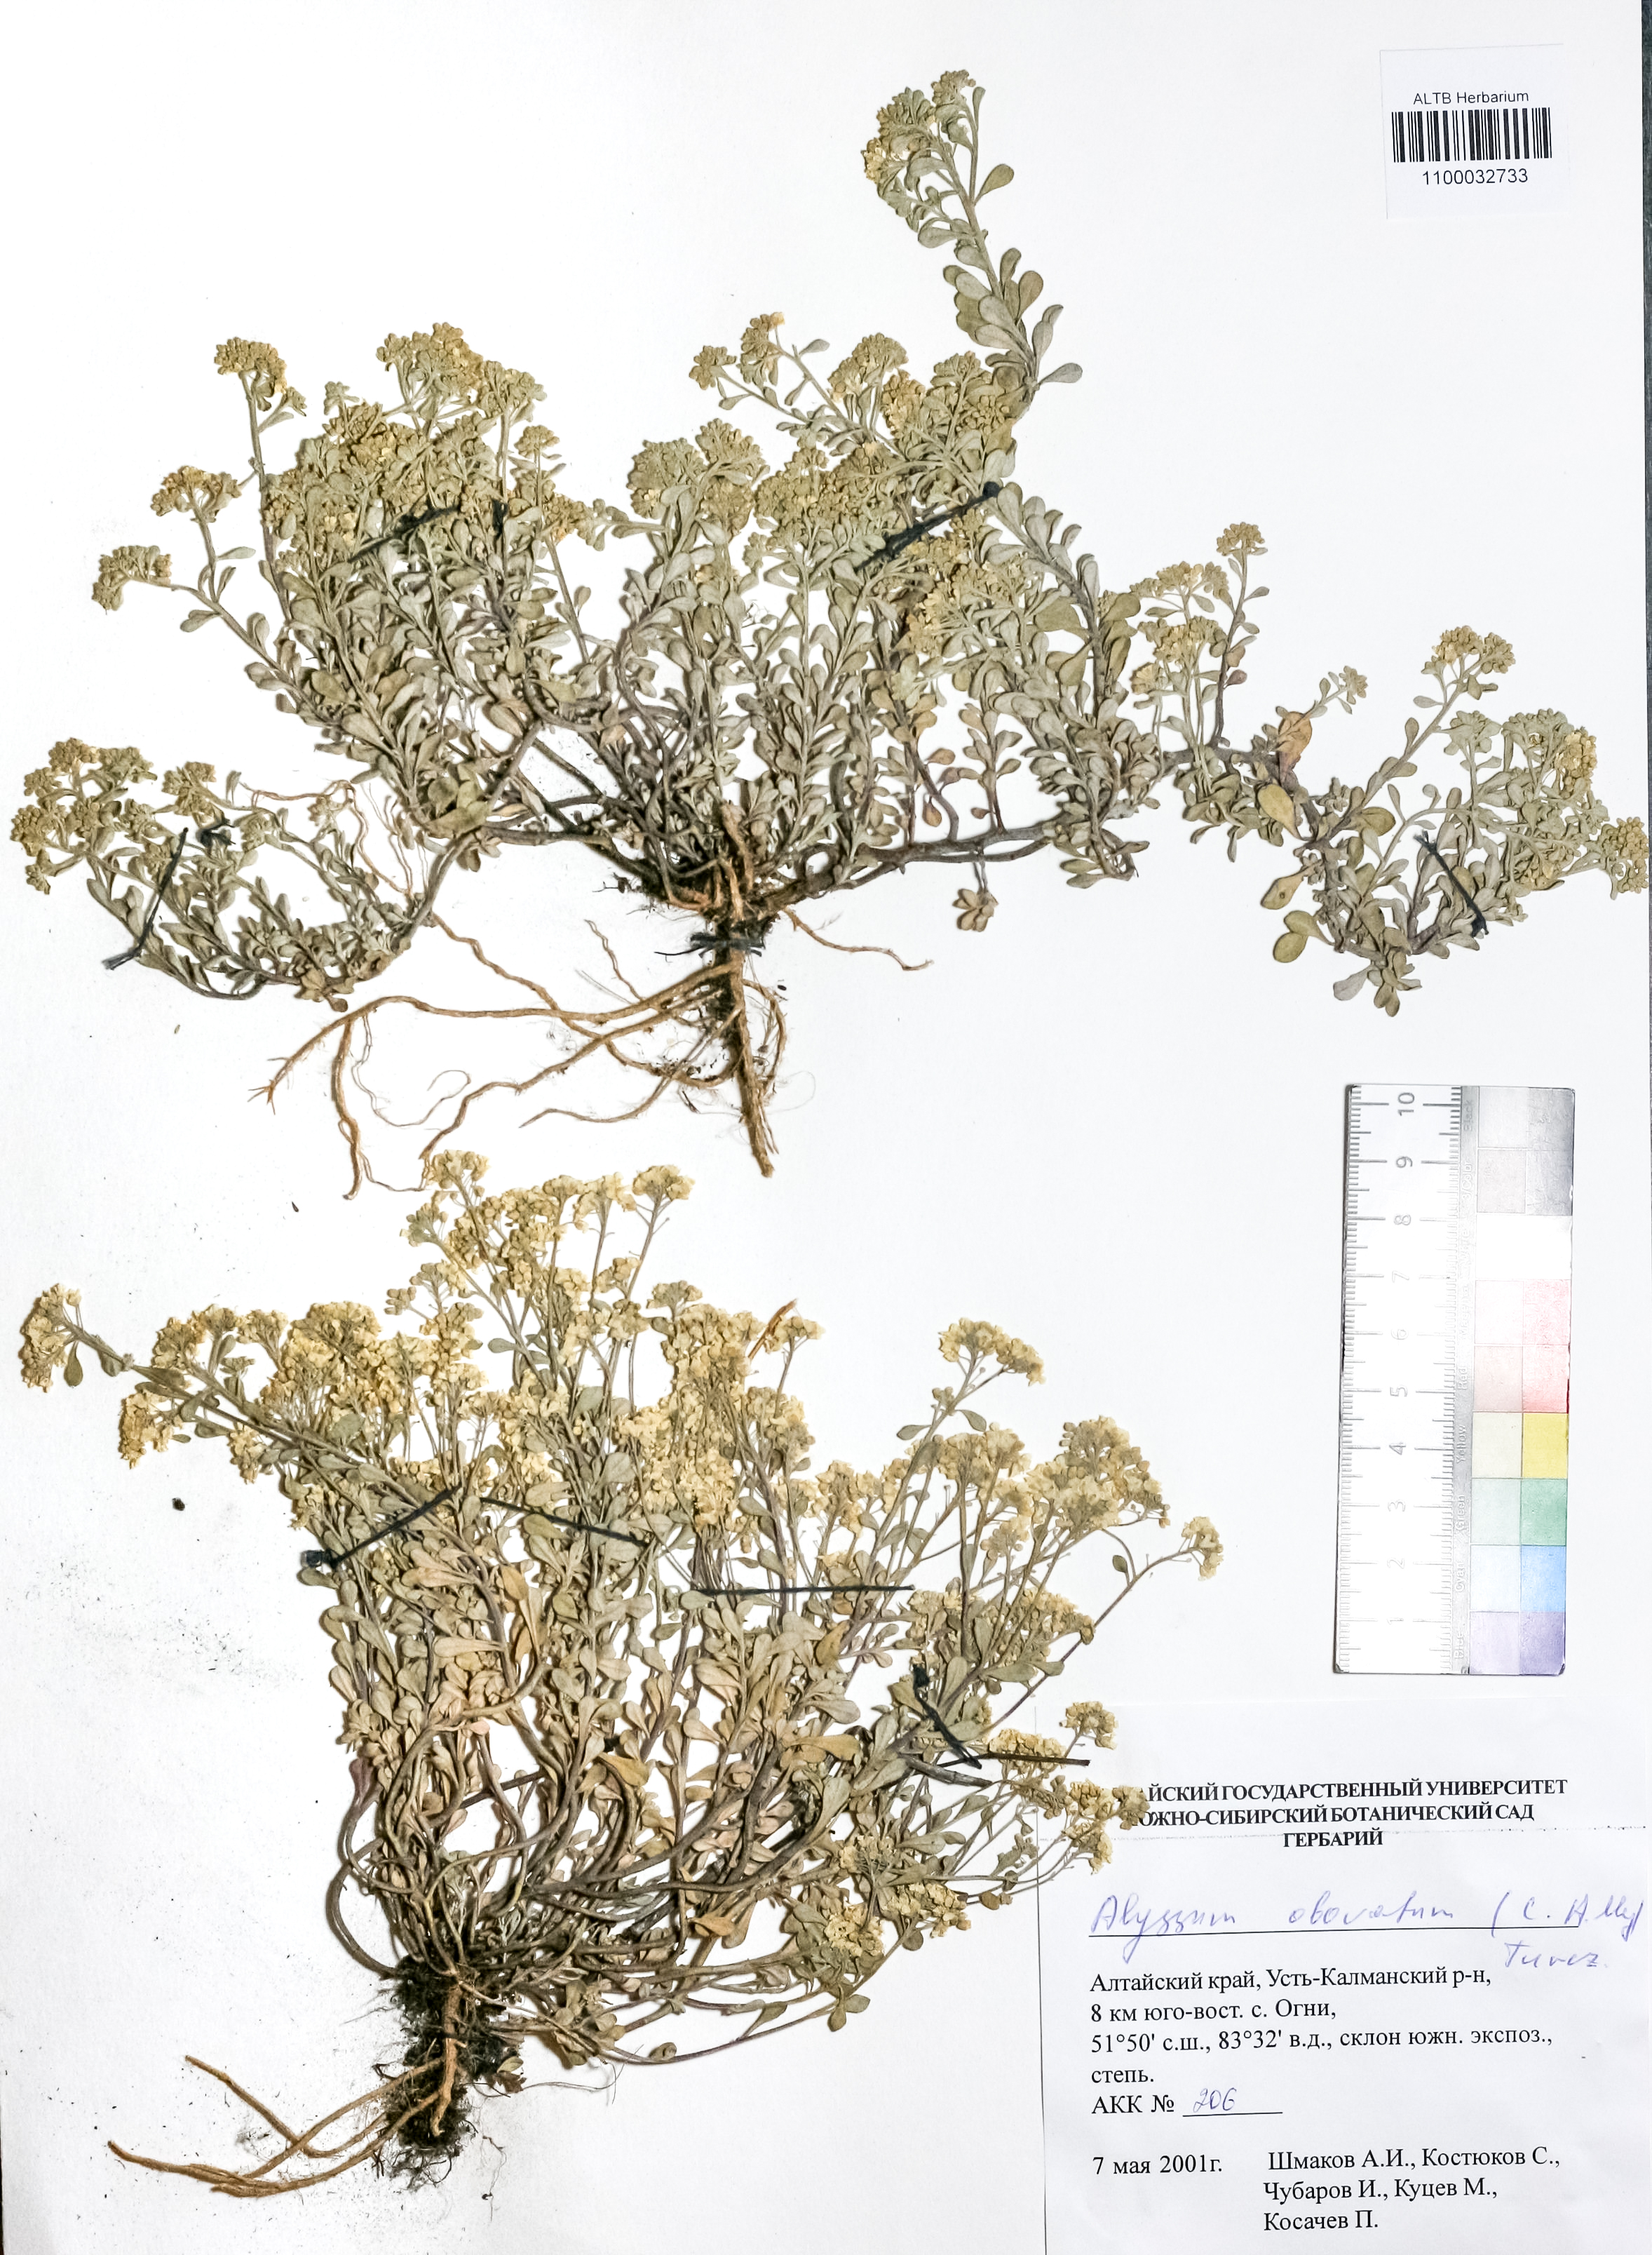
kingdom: Plantae
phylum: Tracheophyta
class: Magnoliopsida
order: Brassicales
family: Brassicaceae
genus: Odontarrhena
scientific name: Odontarrhena obovata
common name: American alyssum
